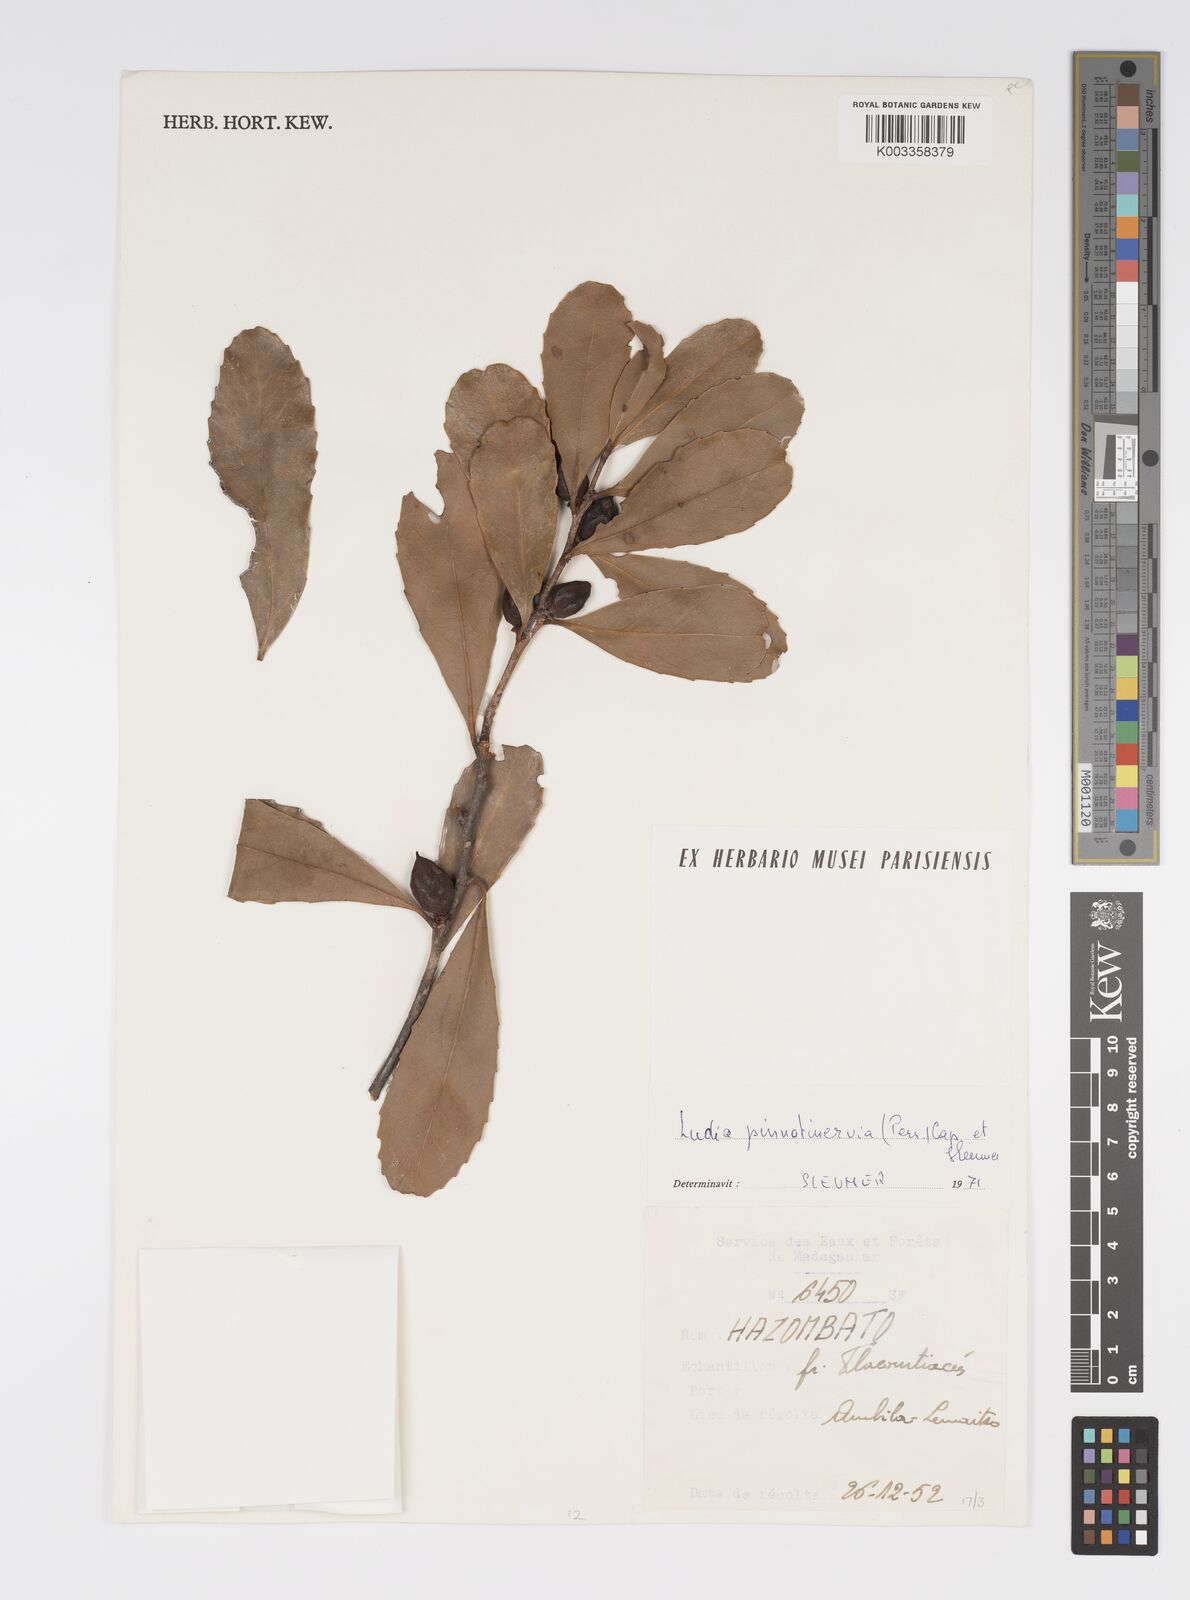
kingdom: Plantae
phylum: Tracheophyta
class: Magnoliopsida
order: Malpighiales
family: Salicaceae
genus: Ludia
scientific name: Ludia pinnatinervia
